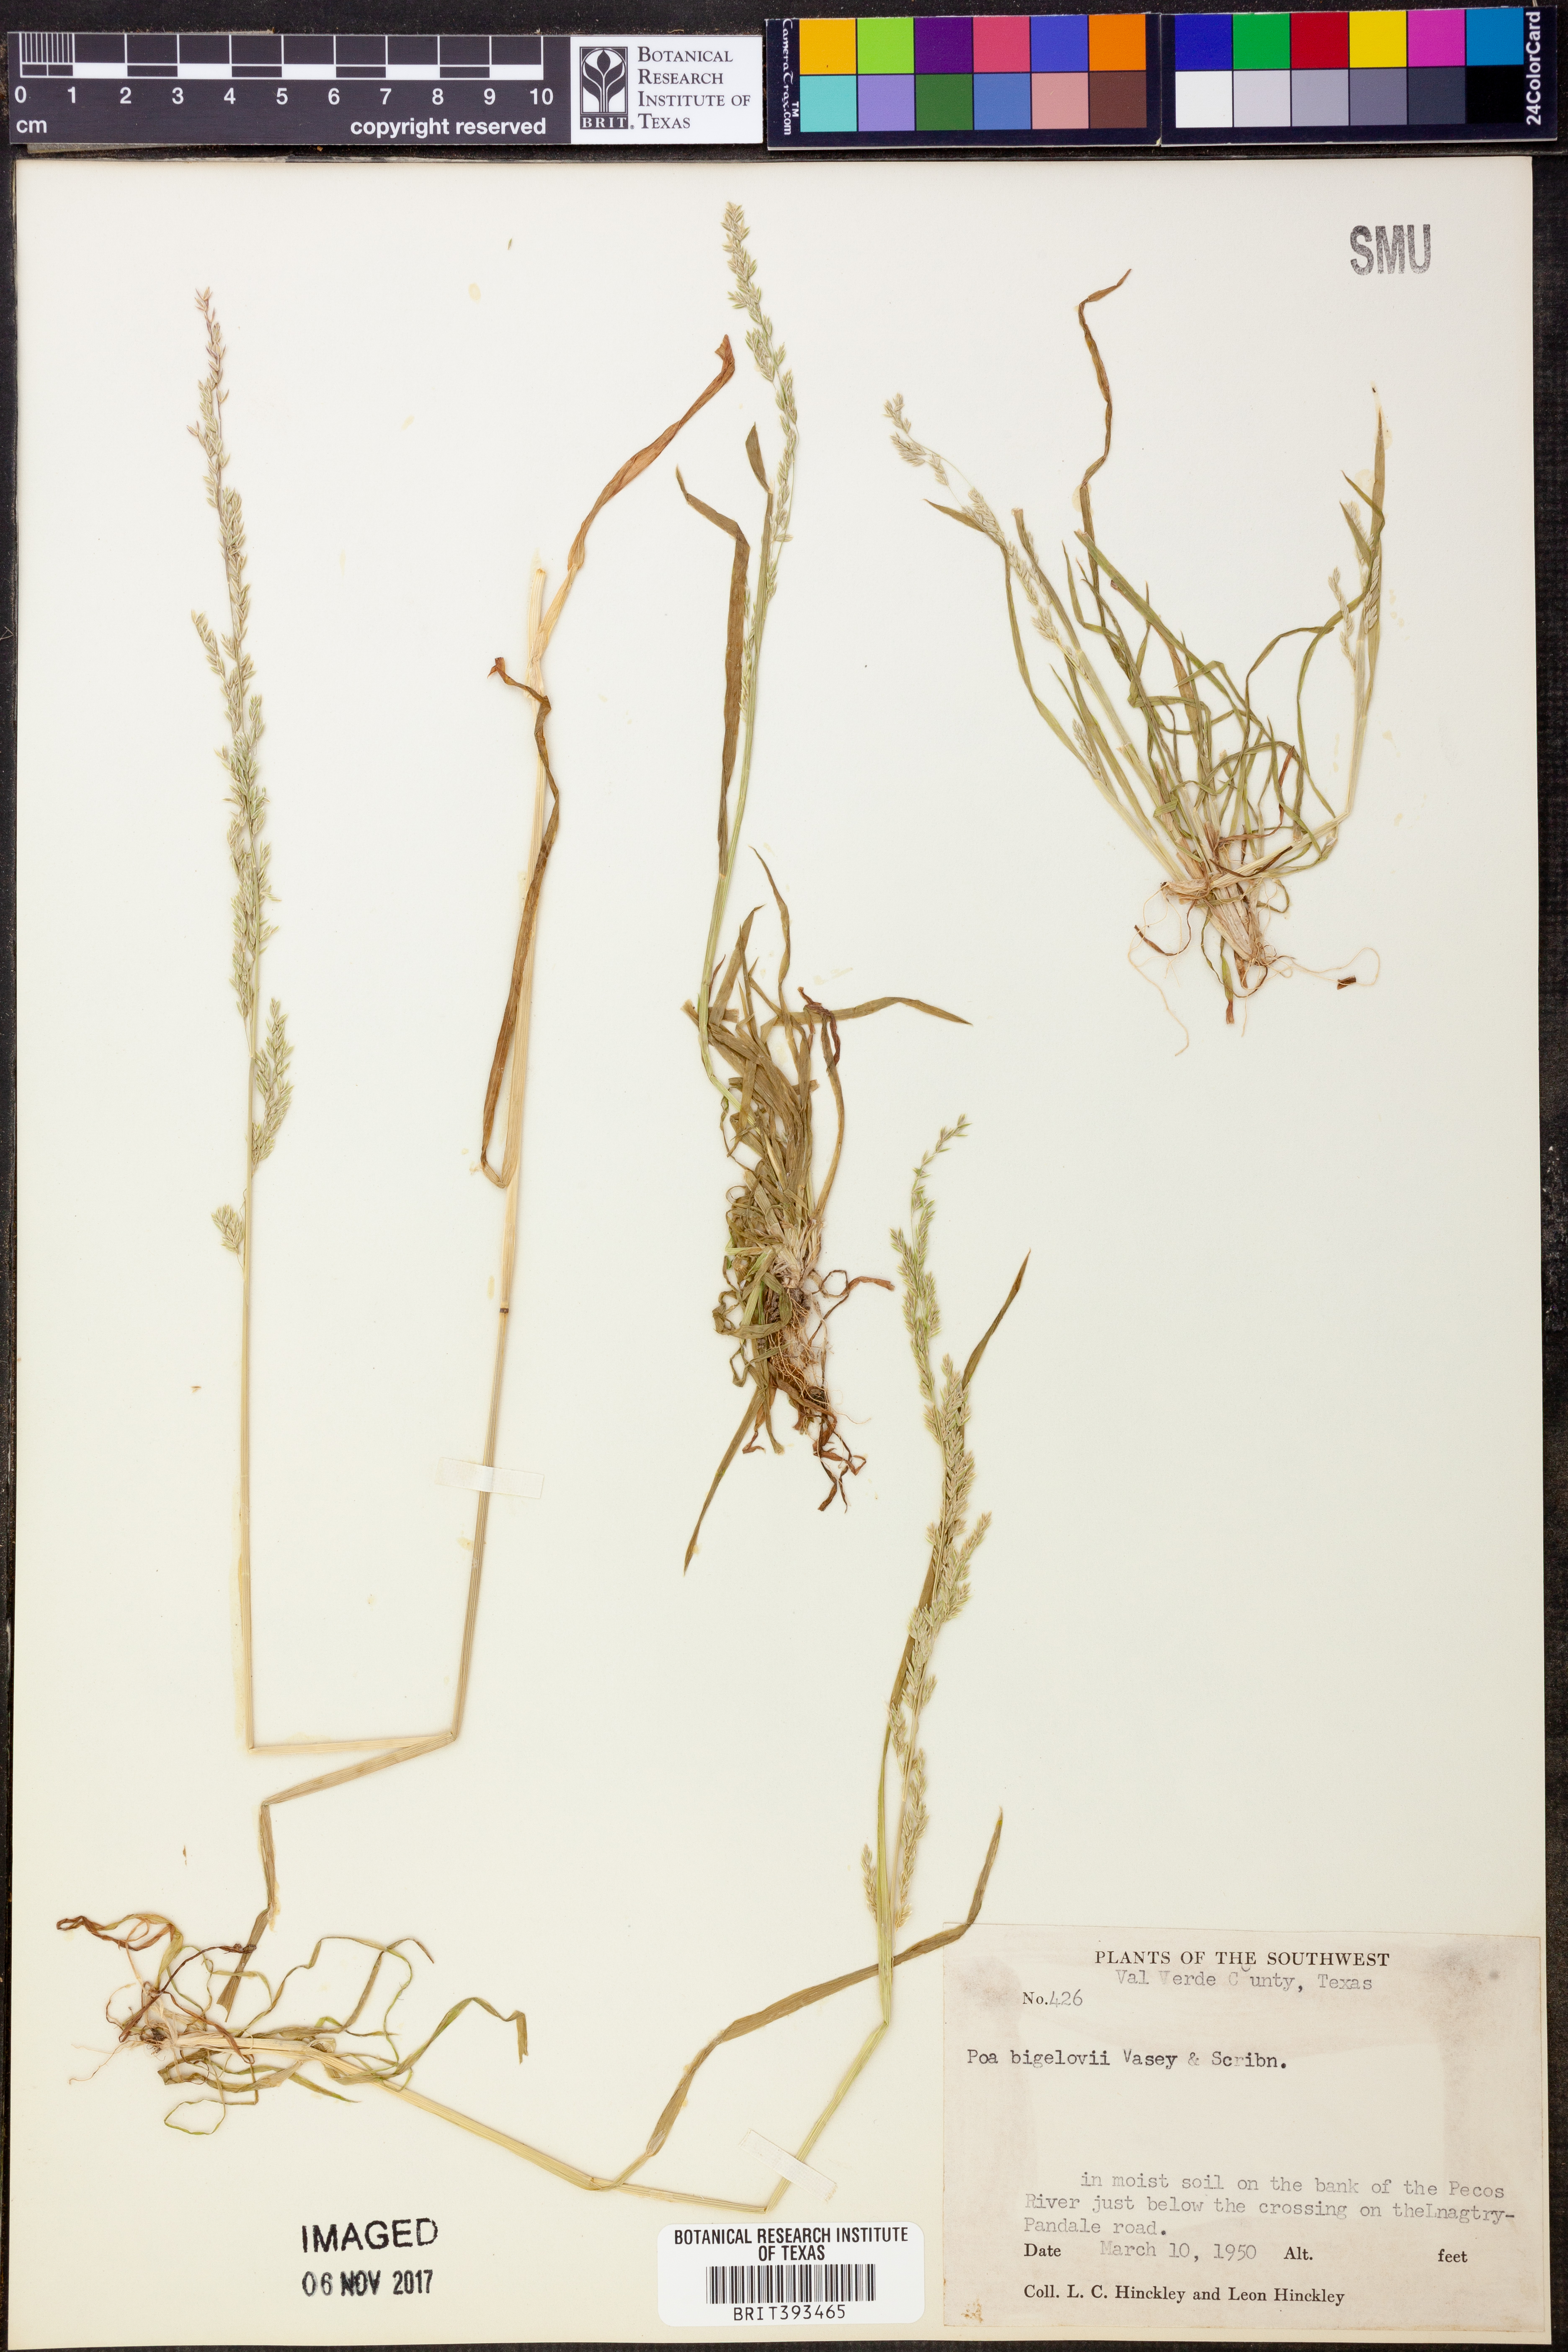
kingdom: Plantae
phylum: Tracheophyta
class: Liliopsida
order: Poales
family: Poaceae
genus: Poa
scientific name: Poa
